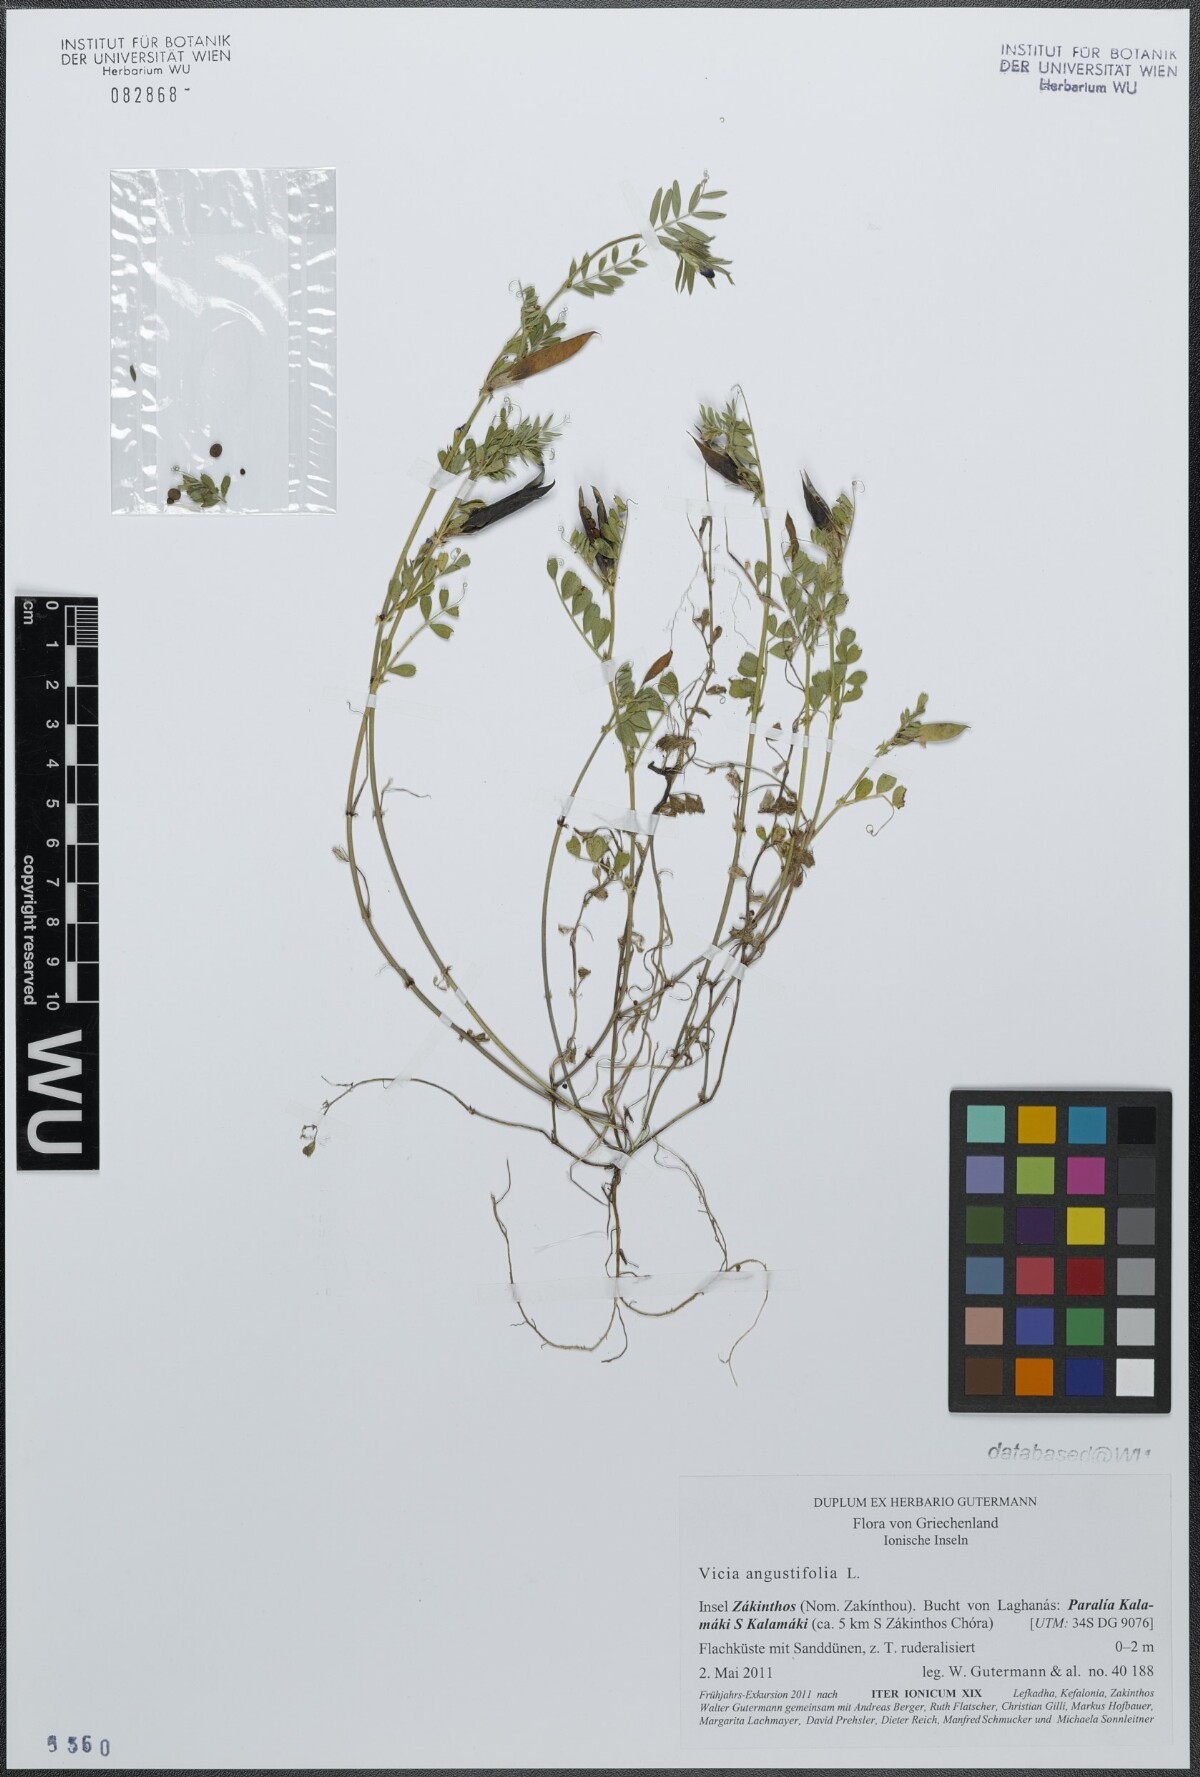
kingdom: Plantae
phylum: Tracheophyta
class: Magnoliopsida
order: Fabales
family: Fabaceae
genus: Vicia
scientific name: Vicia sativa
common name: Garden vetch
